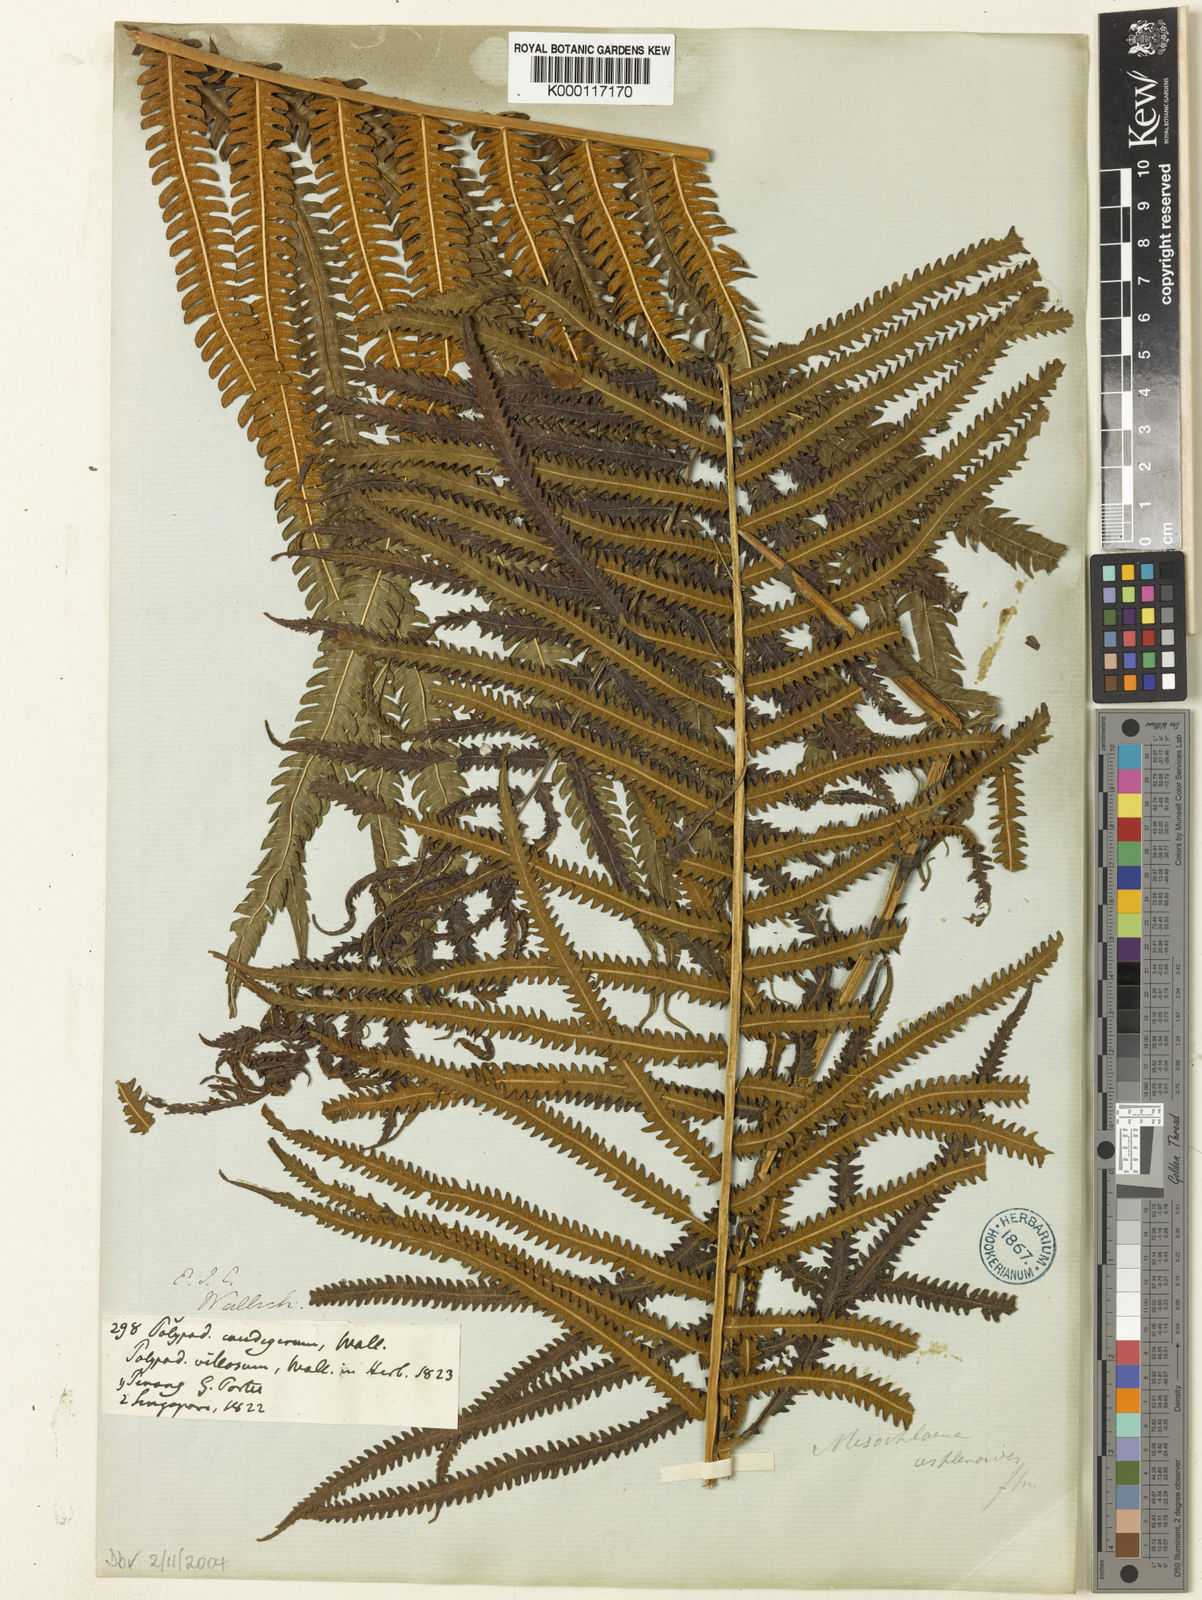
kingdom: Plantae
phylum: Tracheophyta
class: Polypodiopsida
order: Polypodiales
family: Thelypteridaceae
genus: Sphaerostephanos
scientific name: Sphaerostephanos polycarpos
